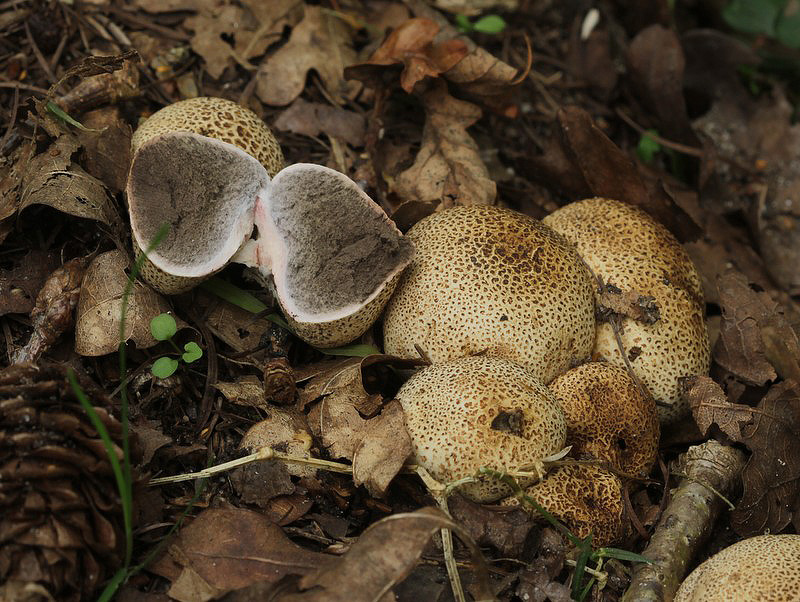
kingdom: Fungi
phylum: Basidiomycota
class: Agaricomycetes
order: Boletales
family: Sclerodermataceae
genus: Scleroderma
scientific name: Scleroderma areolatum
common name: plettet bruskbold
